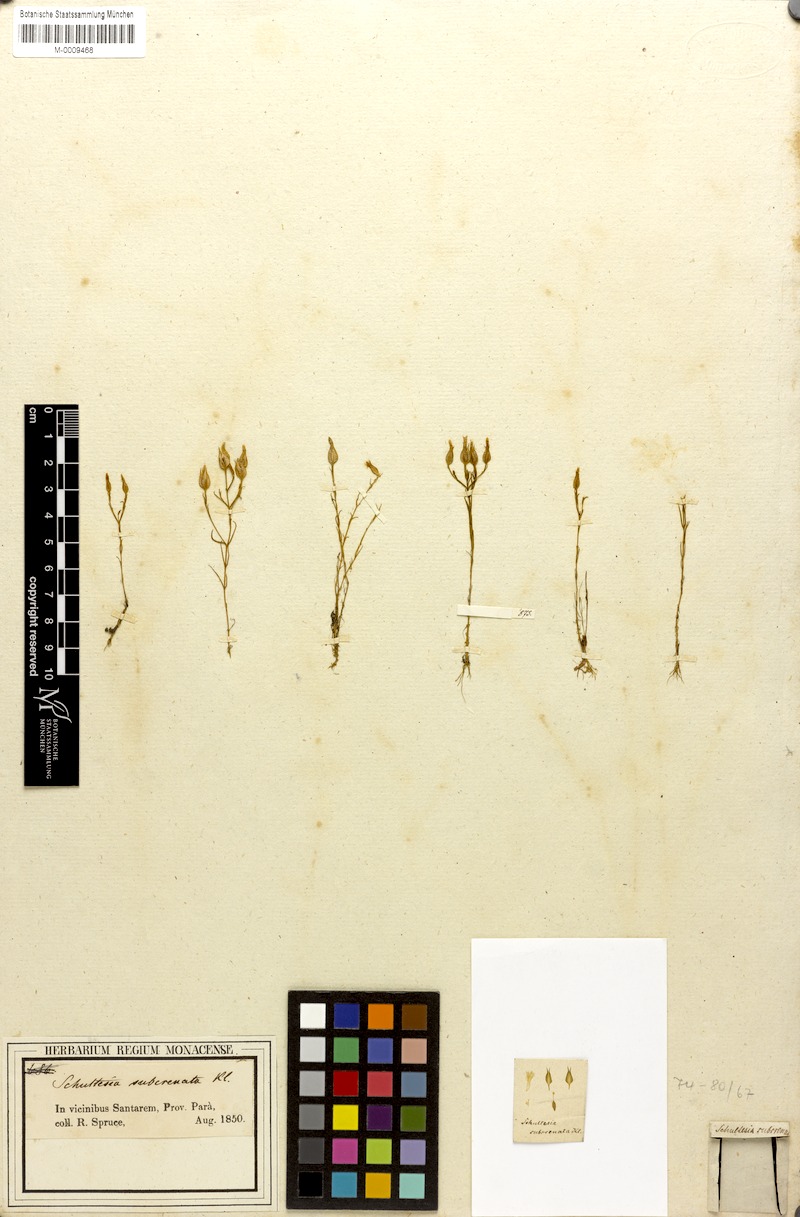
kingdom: Plantae
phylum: Tracheophyta
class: Magnoliopsida
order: Gentianales
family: Gentianaceae
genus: Schultesia
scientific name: Schultesia subcrenata
